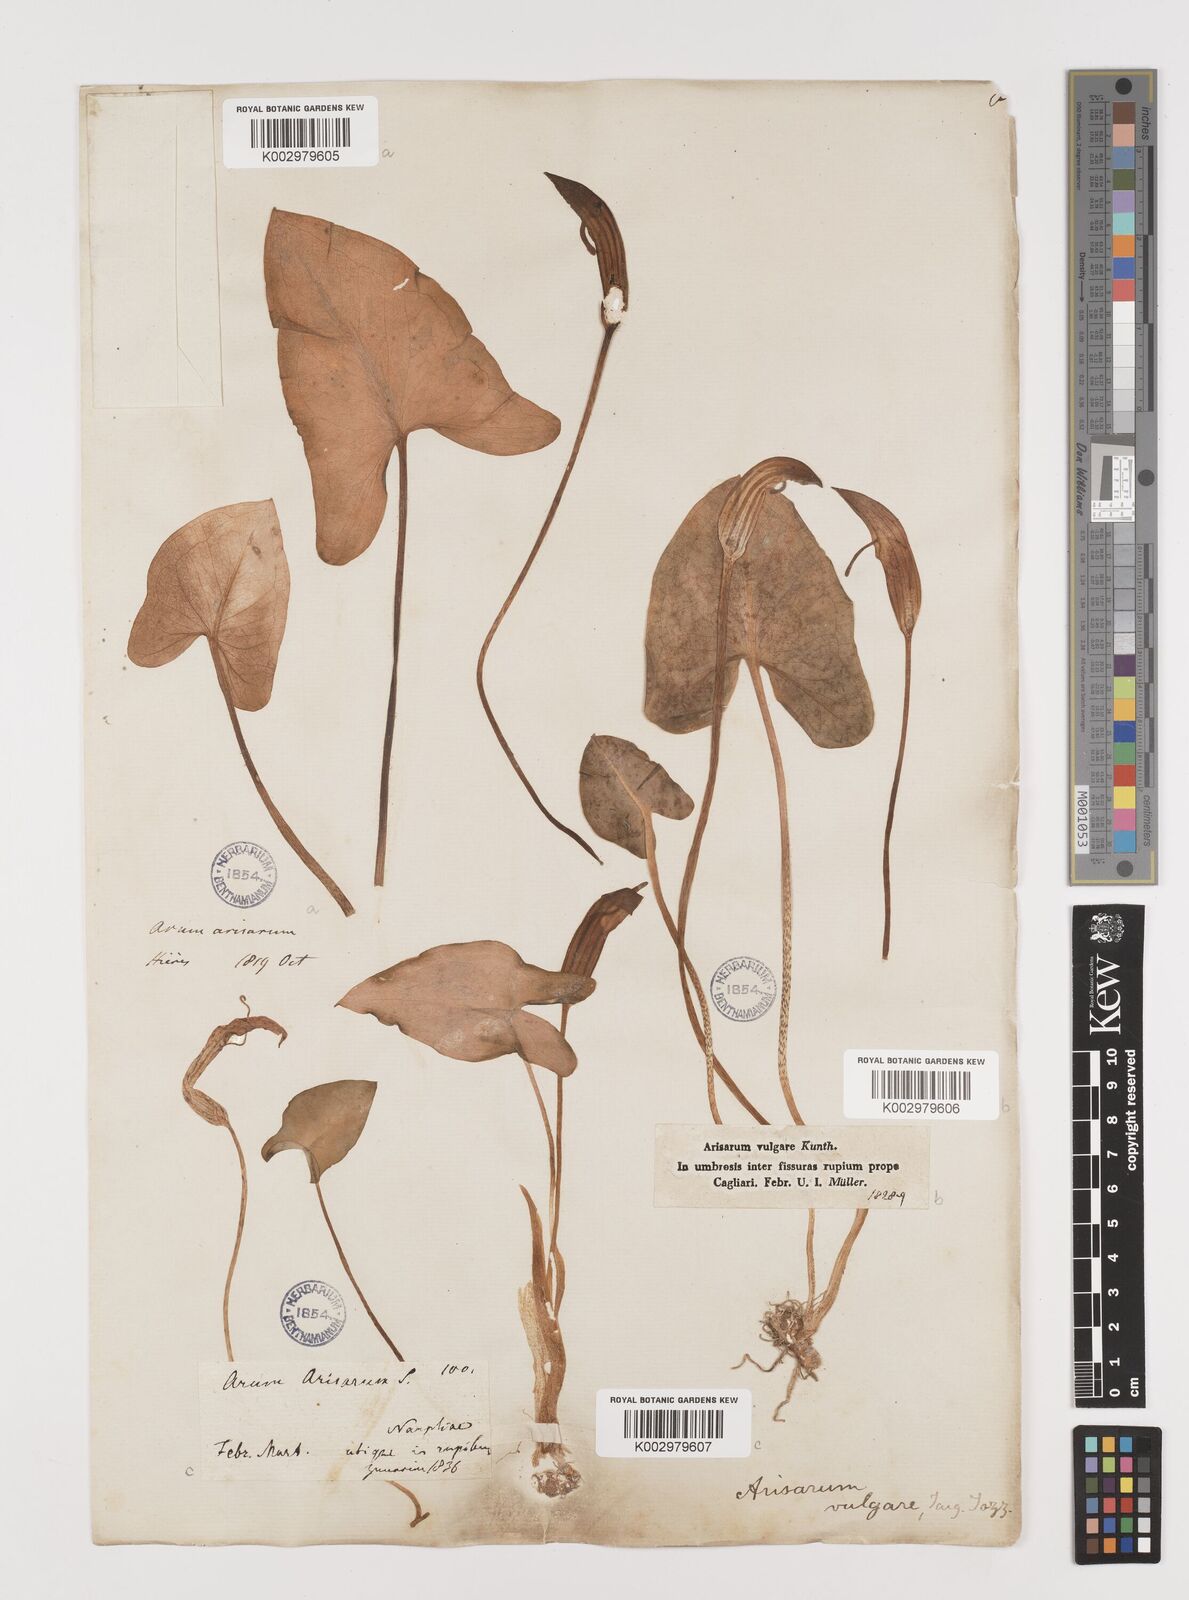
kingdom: Plantae
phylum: Tracheophyta
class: Liliopsida
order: Alismatales
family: Araceae
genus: Arisarum
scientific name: Arisarum vulgare
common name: Common arisarum
